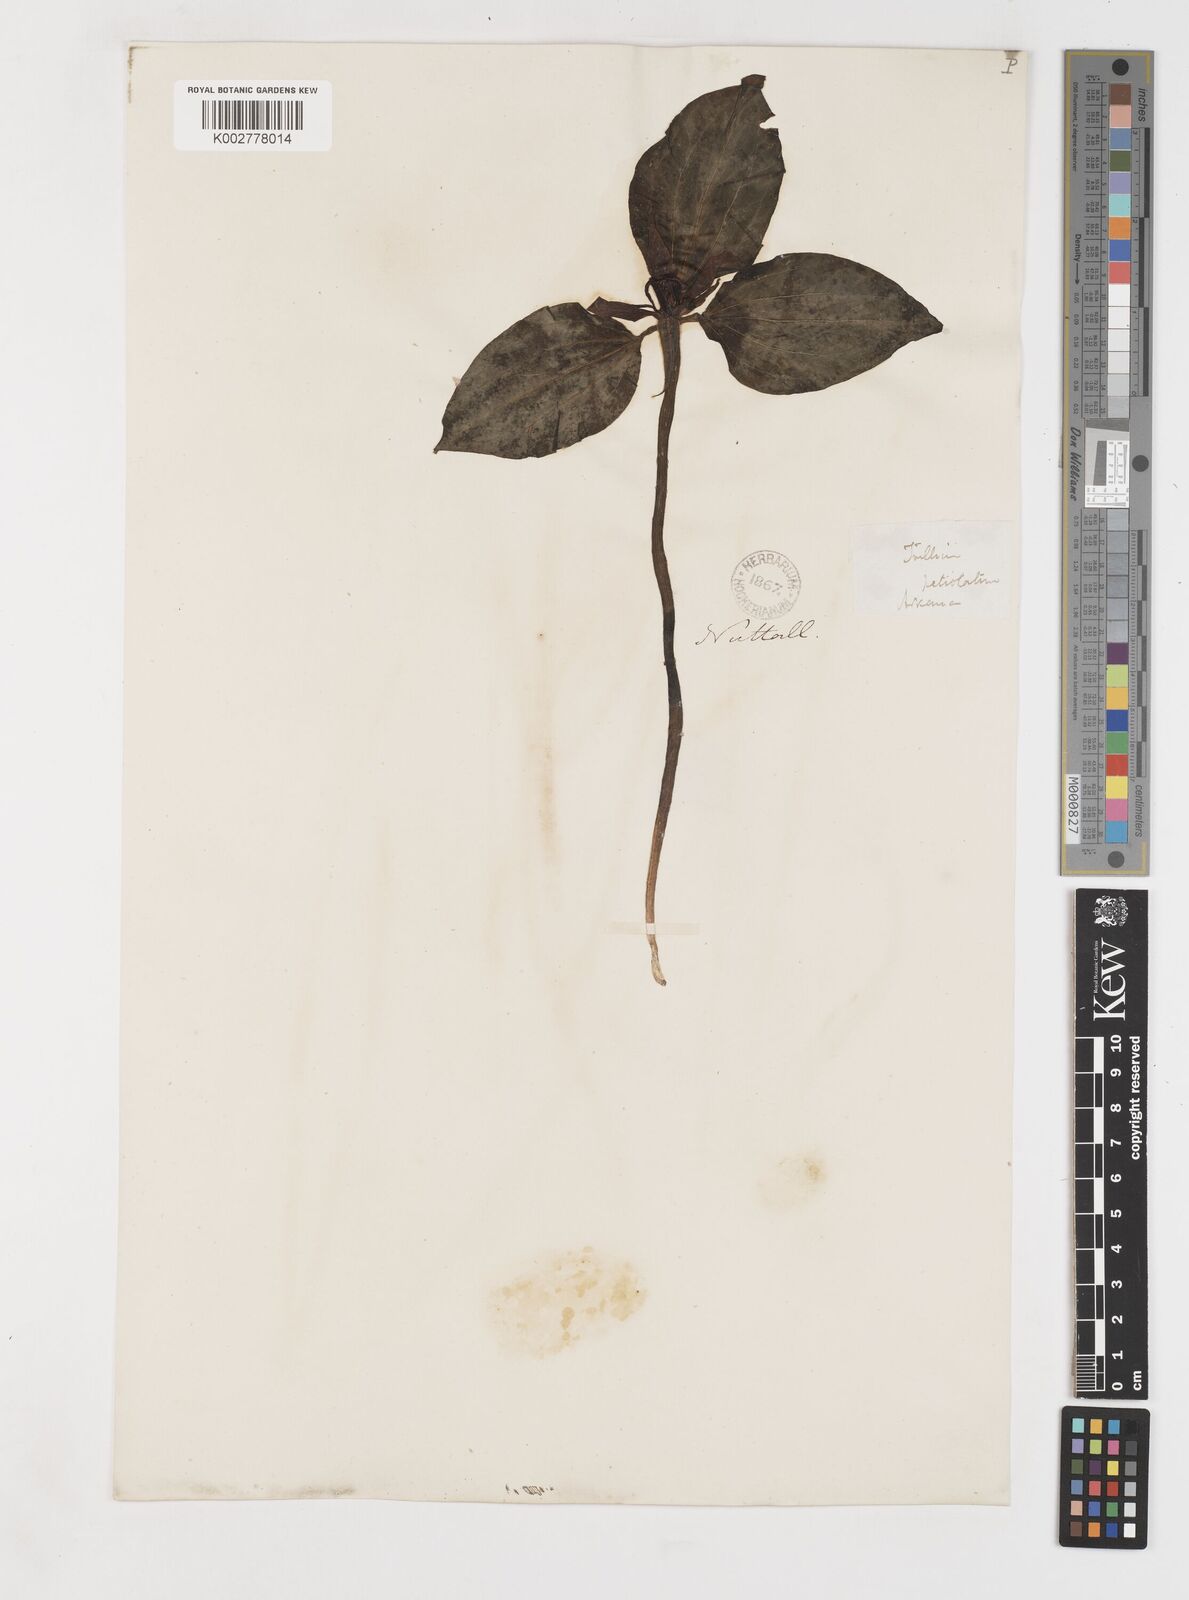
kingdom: Plantae
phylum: Tracheophyta
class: Liliopsida
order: Liliales
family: Melanthiaceae
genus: Trillium
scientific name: Trillium recurvatum
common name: Bloody butcher
